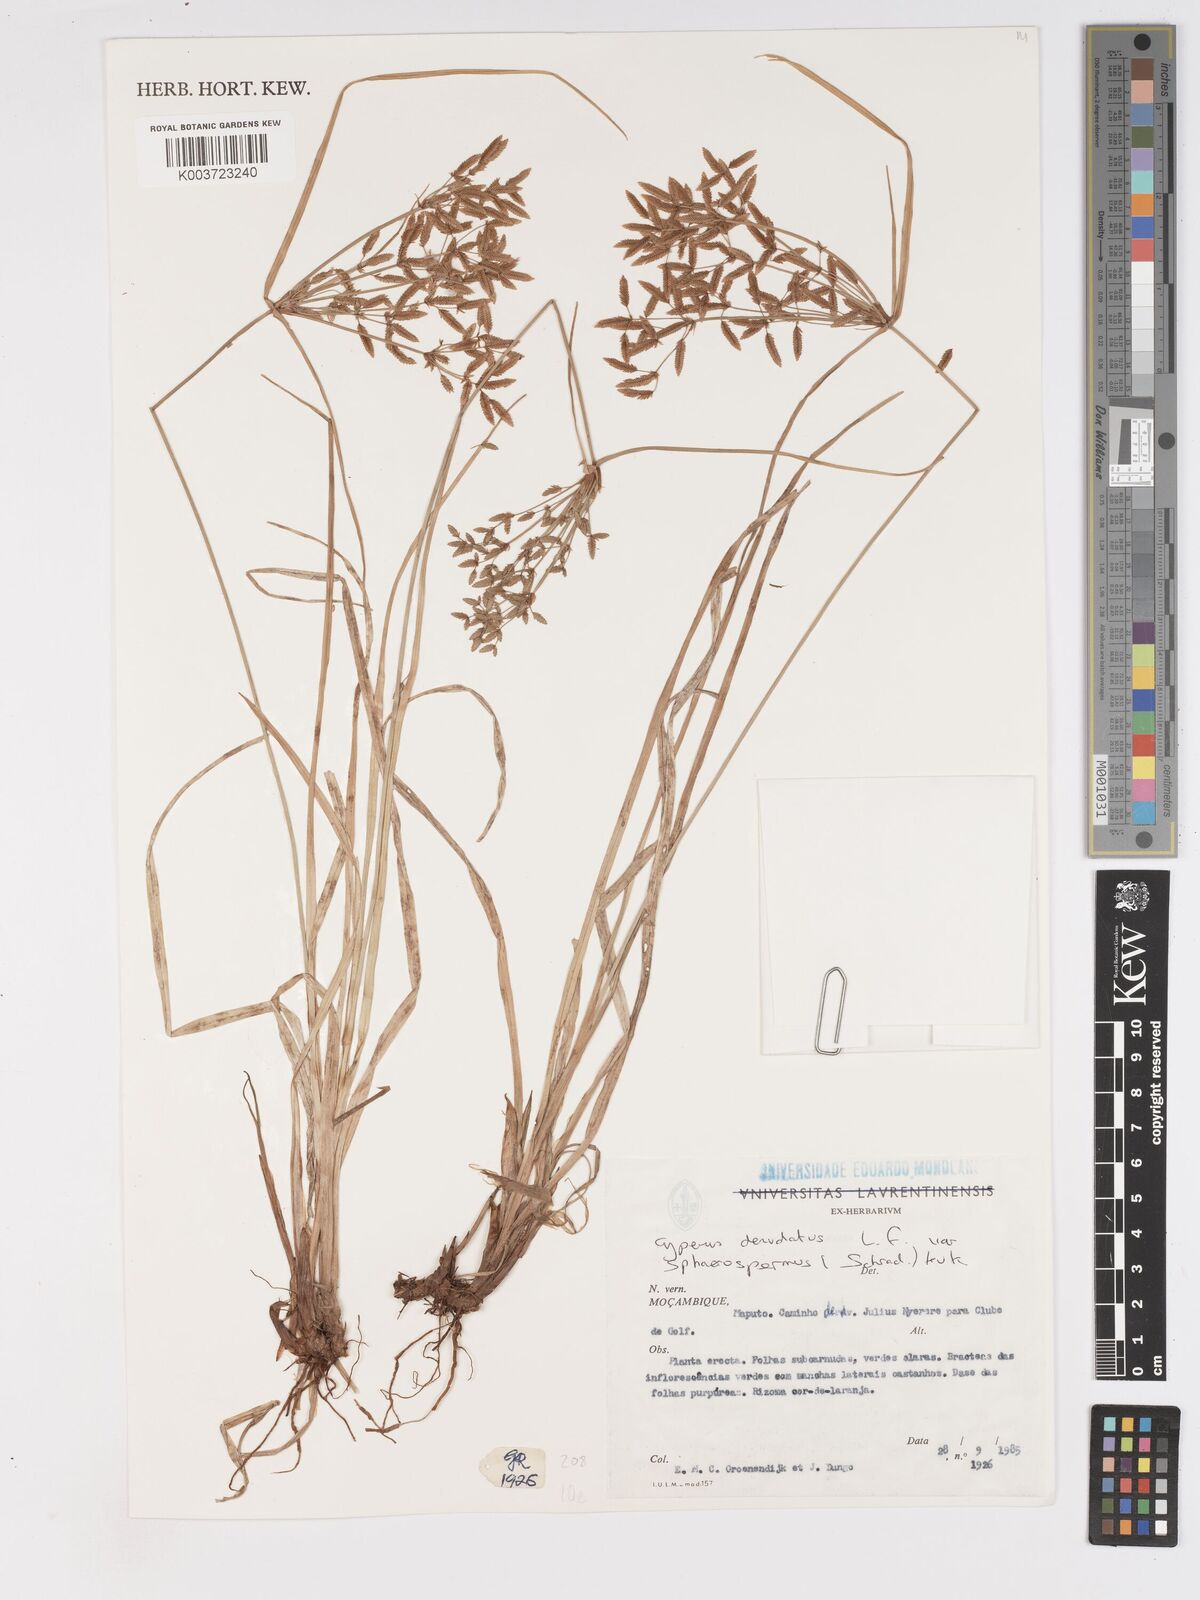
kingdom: Plantae
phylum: Tracheophyta
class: Liliopsida
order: Poales
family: Cyperaceae
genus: Cyperus
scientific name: Cyperus denudatus
